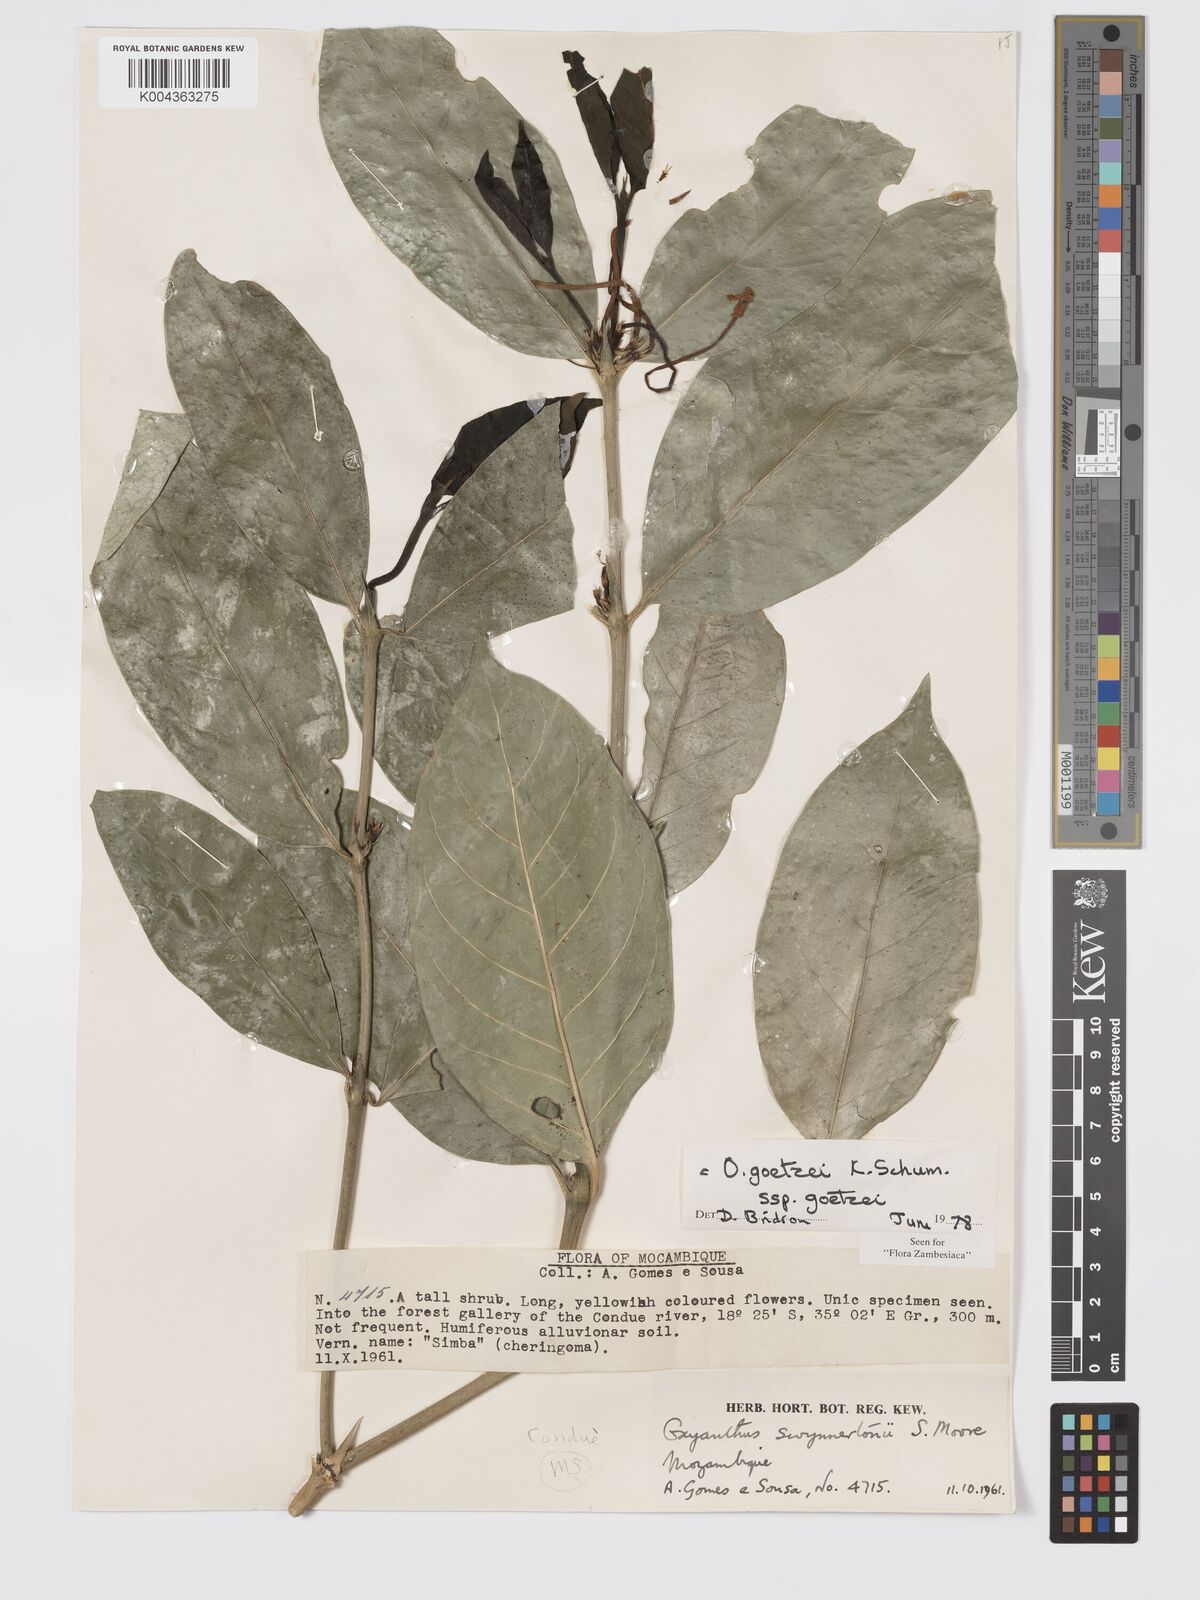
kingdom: Plantae
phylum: Tracheophyta
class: Magnoliopsida
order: Gentianales
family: Rubiaceae
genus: Oxyanthus
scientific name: Oxyanthus goetzei
